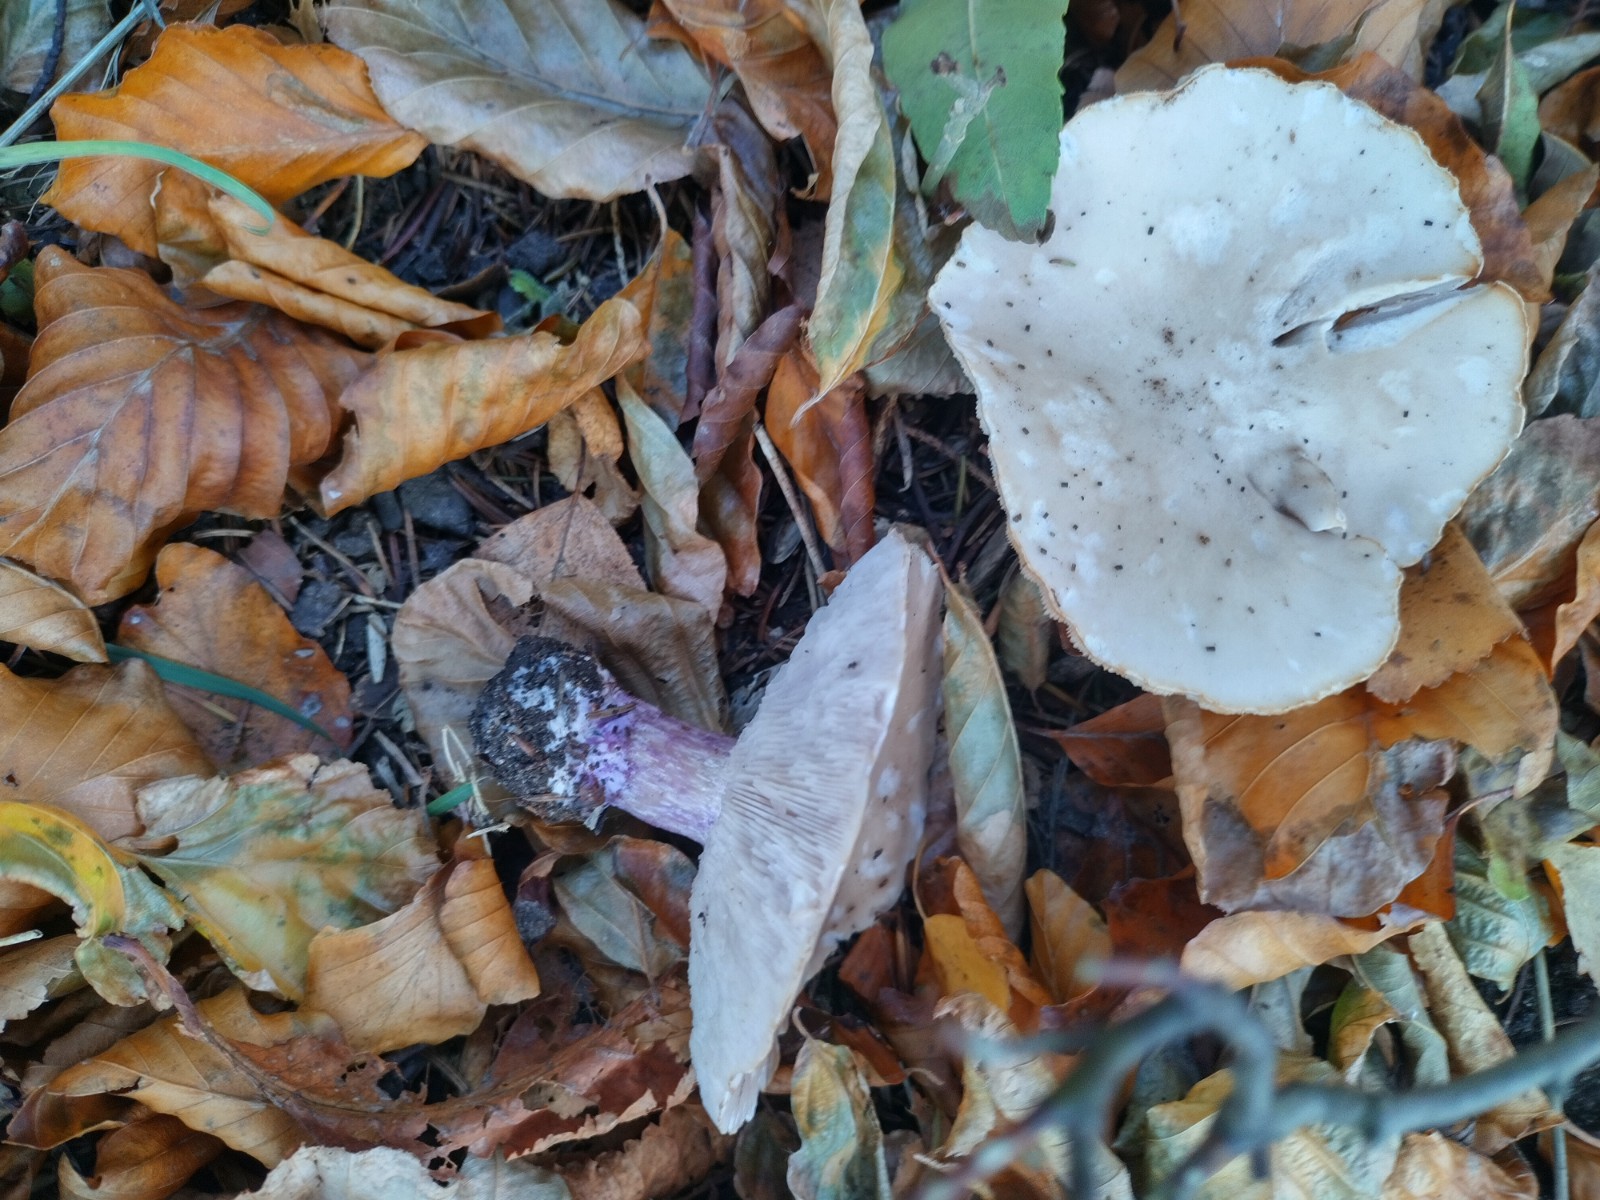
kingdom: Fungi
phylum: Basidiomycota
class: Agaricomycetes
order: Agaricales
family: Tricholomataceae
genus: Lepista
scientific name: Lepista personata
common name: bleg hekseringshat
